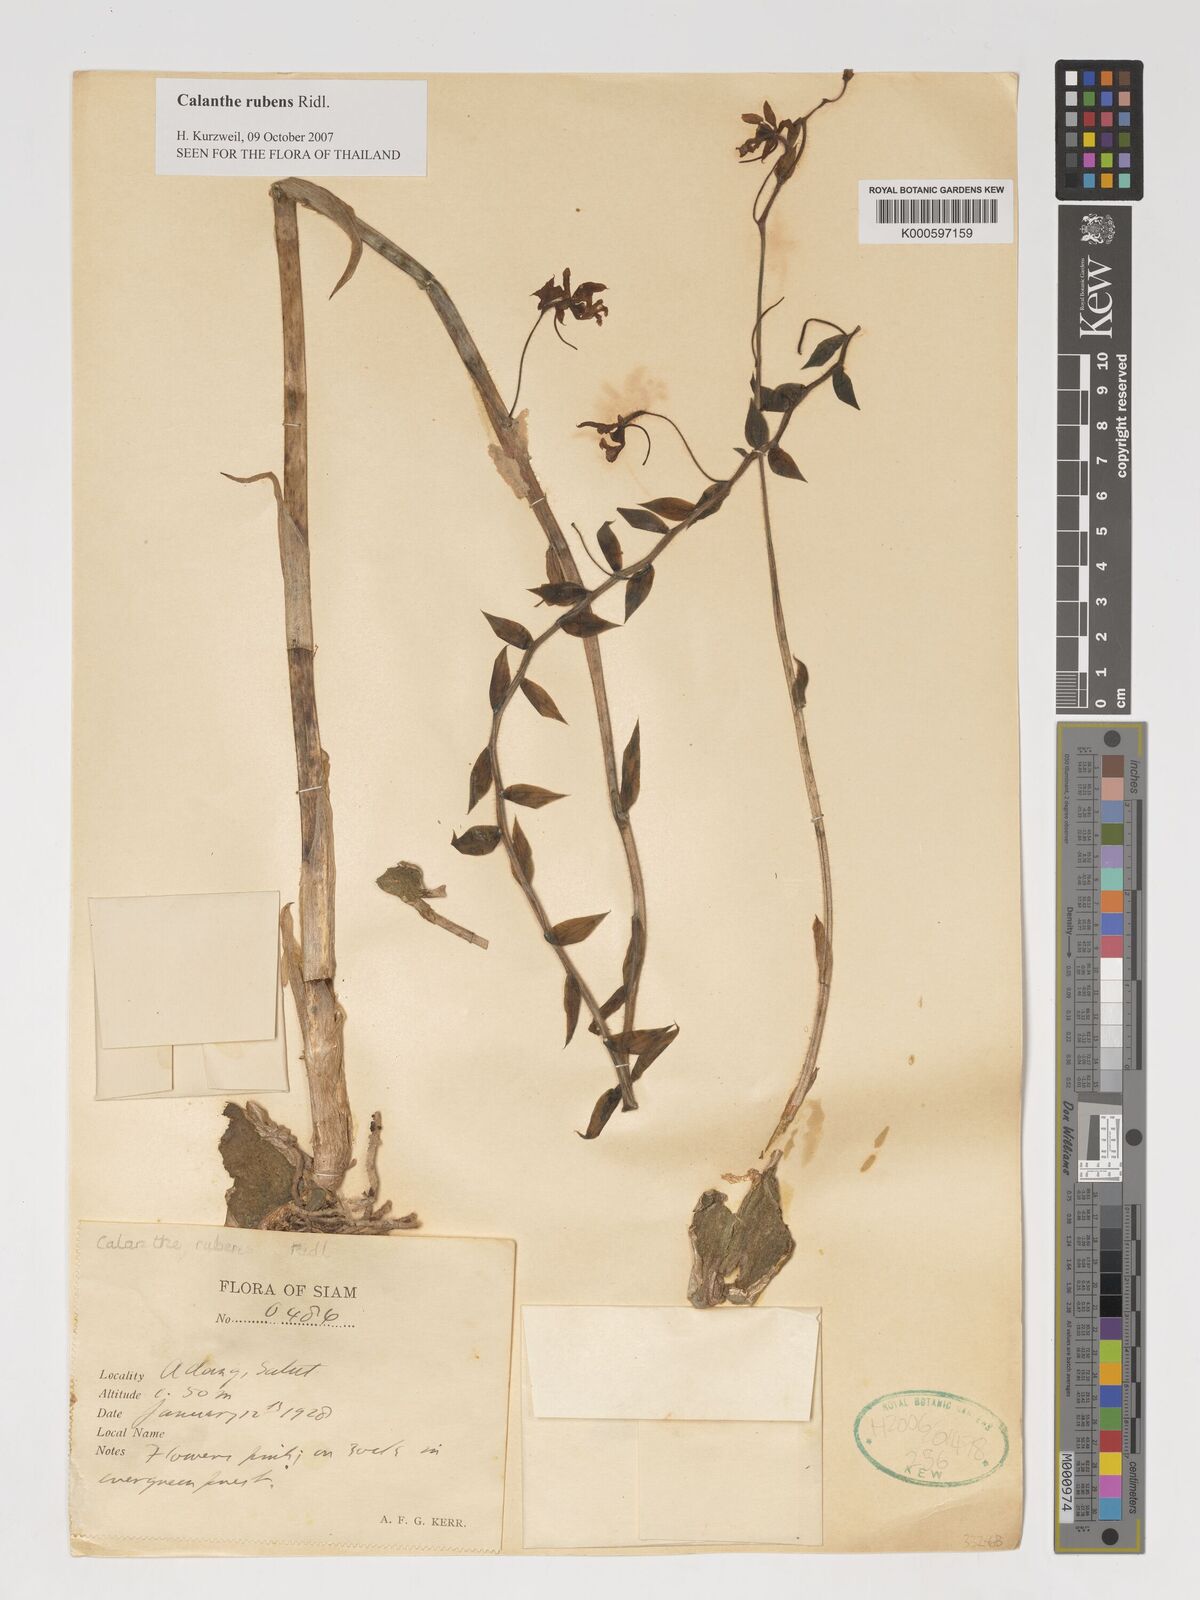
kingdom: Plantae
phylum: Tracheophyta
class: Liliopsida
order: Asparagales
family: Orchidaceae
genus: Calanthe
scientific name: Calanthe rubens
